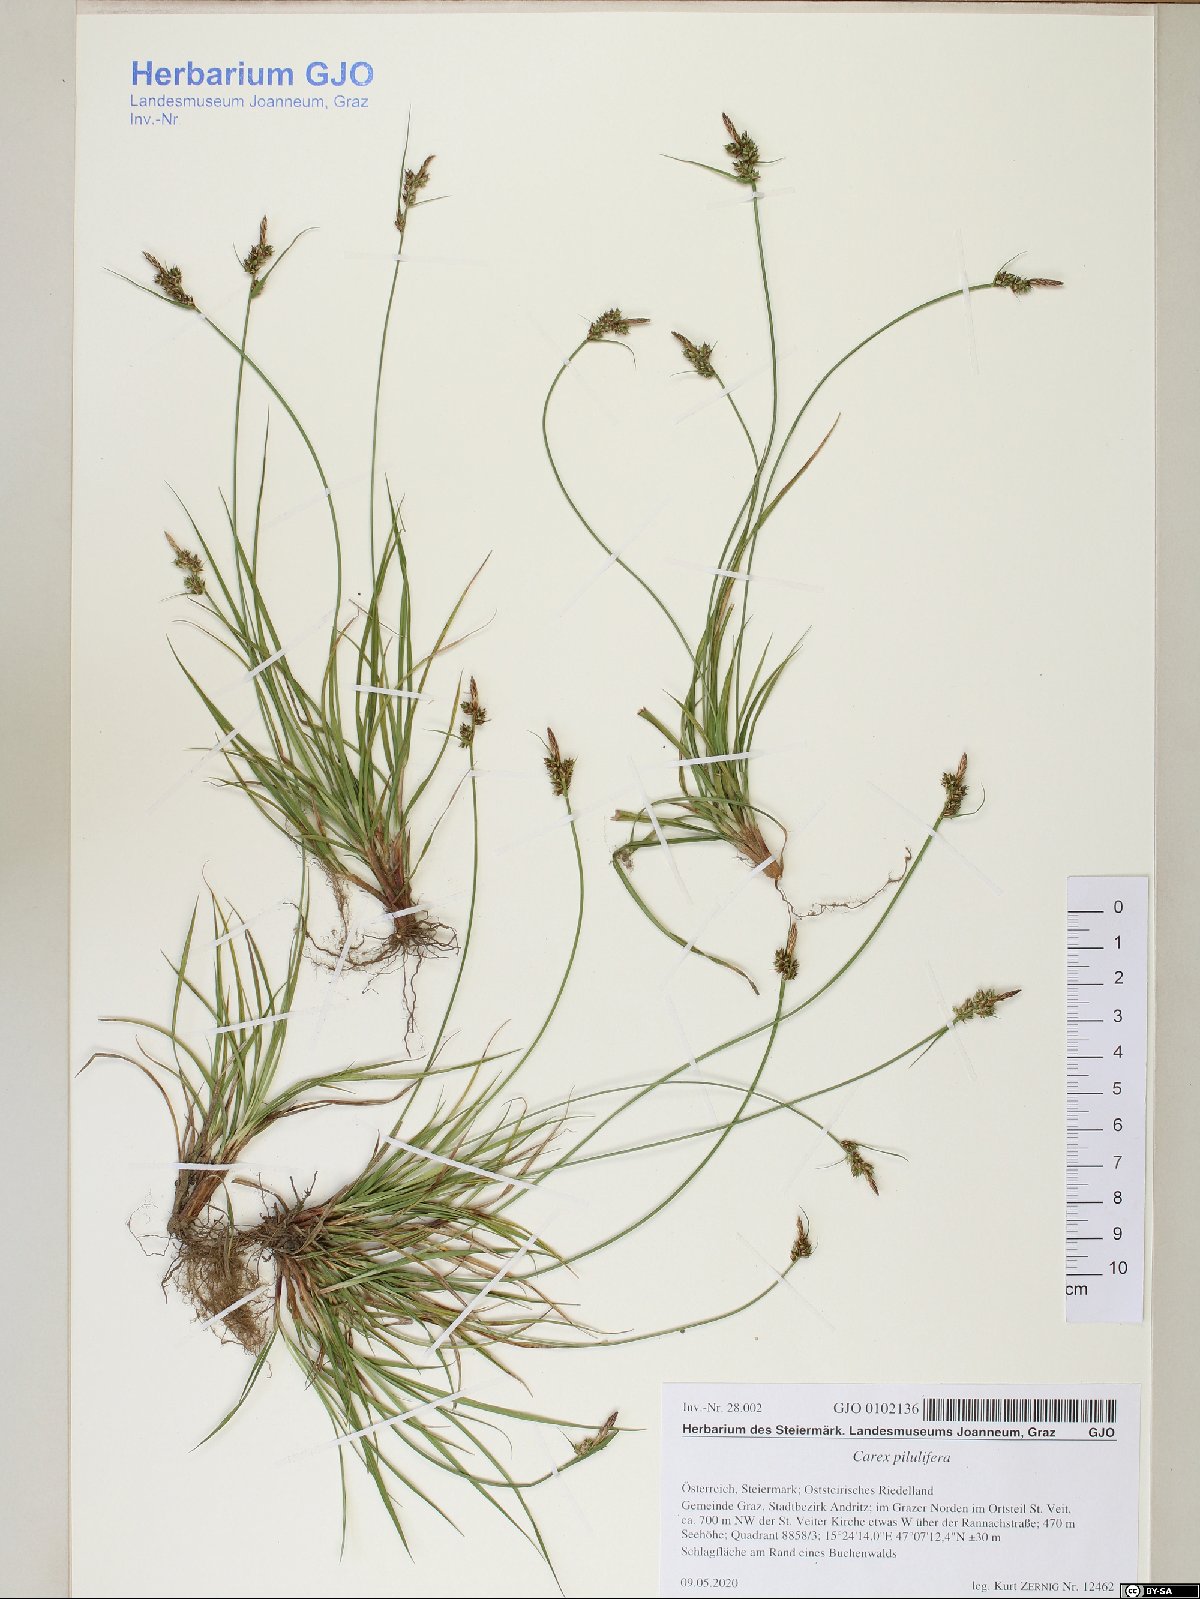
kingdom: Plantae
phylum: Tracheophyta
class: Liliopsida
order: Poales
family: Cyperaceae
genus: Carex
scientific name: Carex pilulifera
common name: Pill sedge
